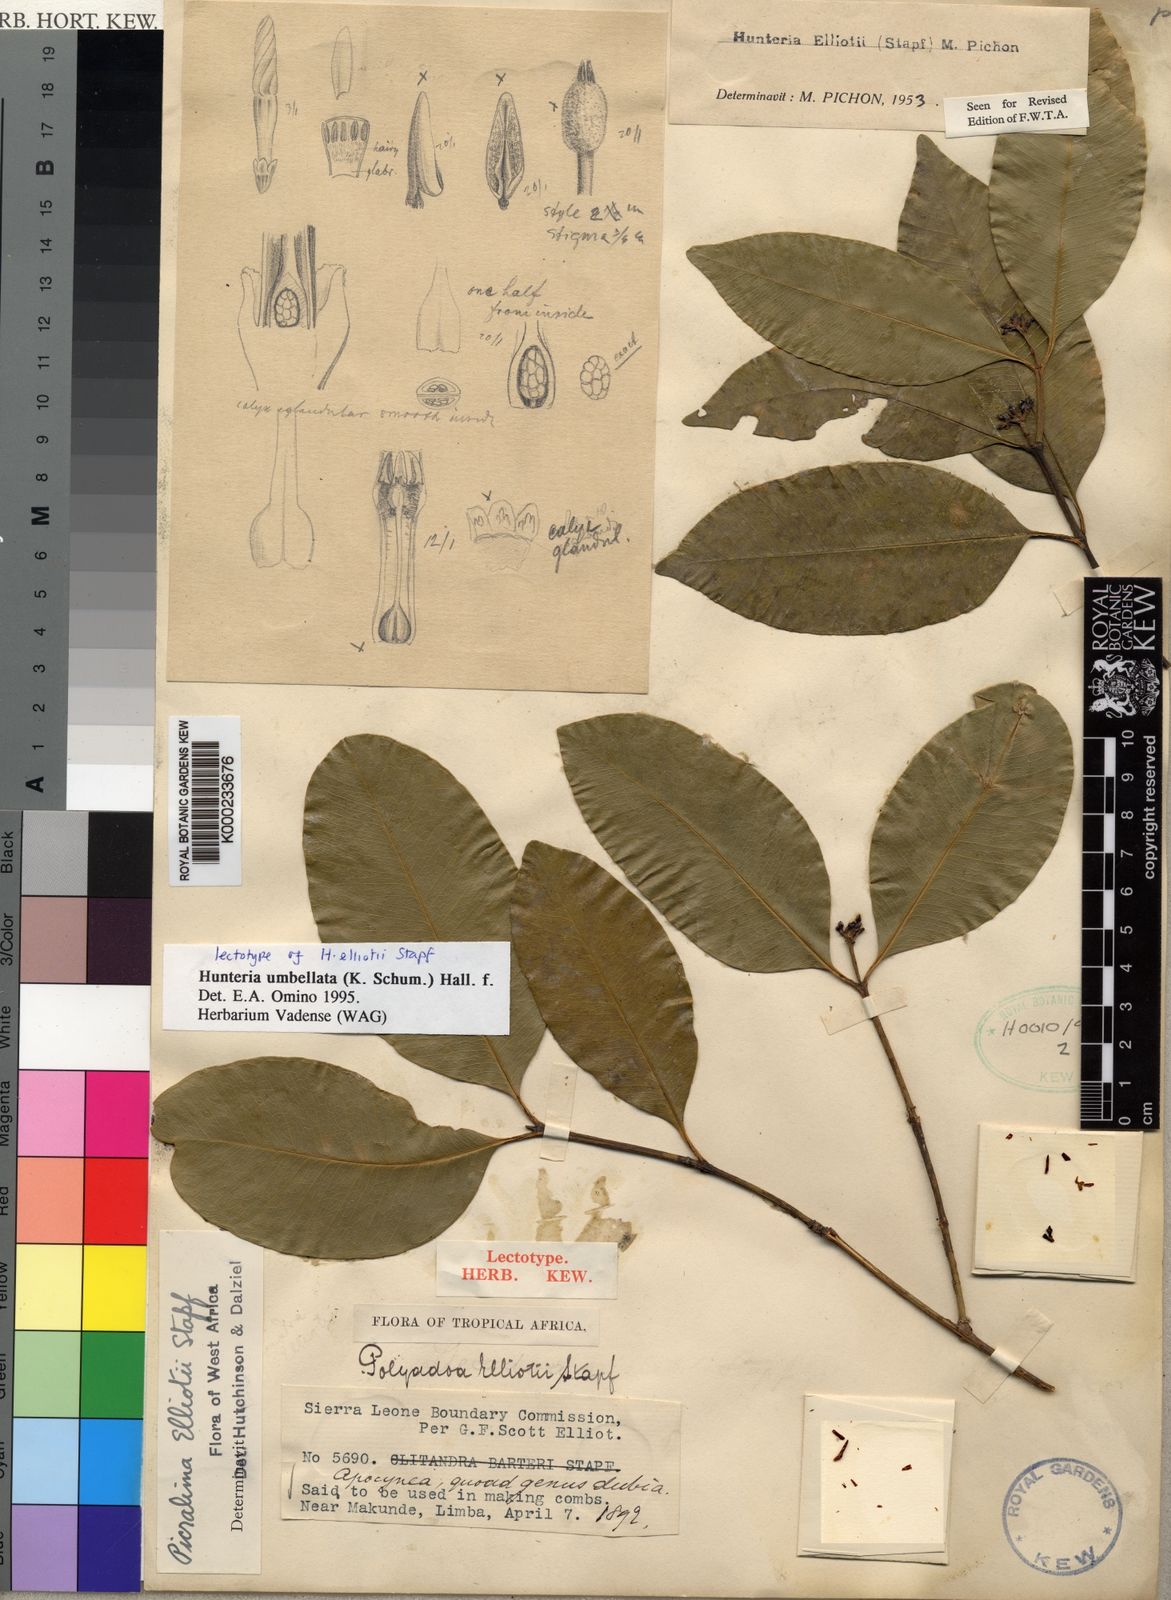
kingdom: Plantae
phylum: Tracheophyta
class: Magnoliopsida
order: Gentianales
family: Apocynaceae
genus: Hunteria
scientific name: Hunteria umbellata
